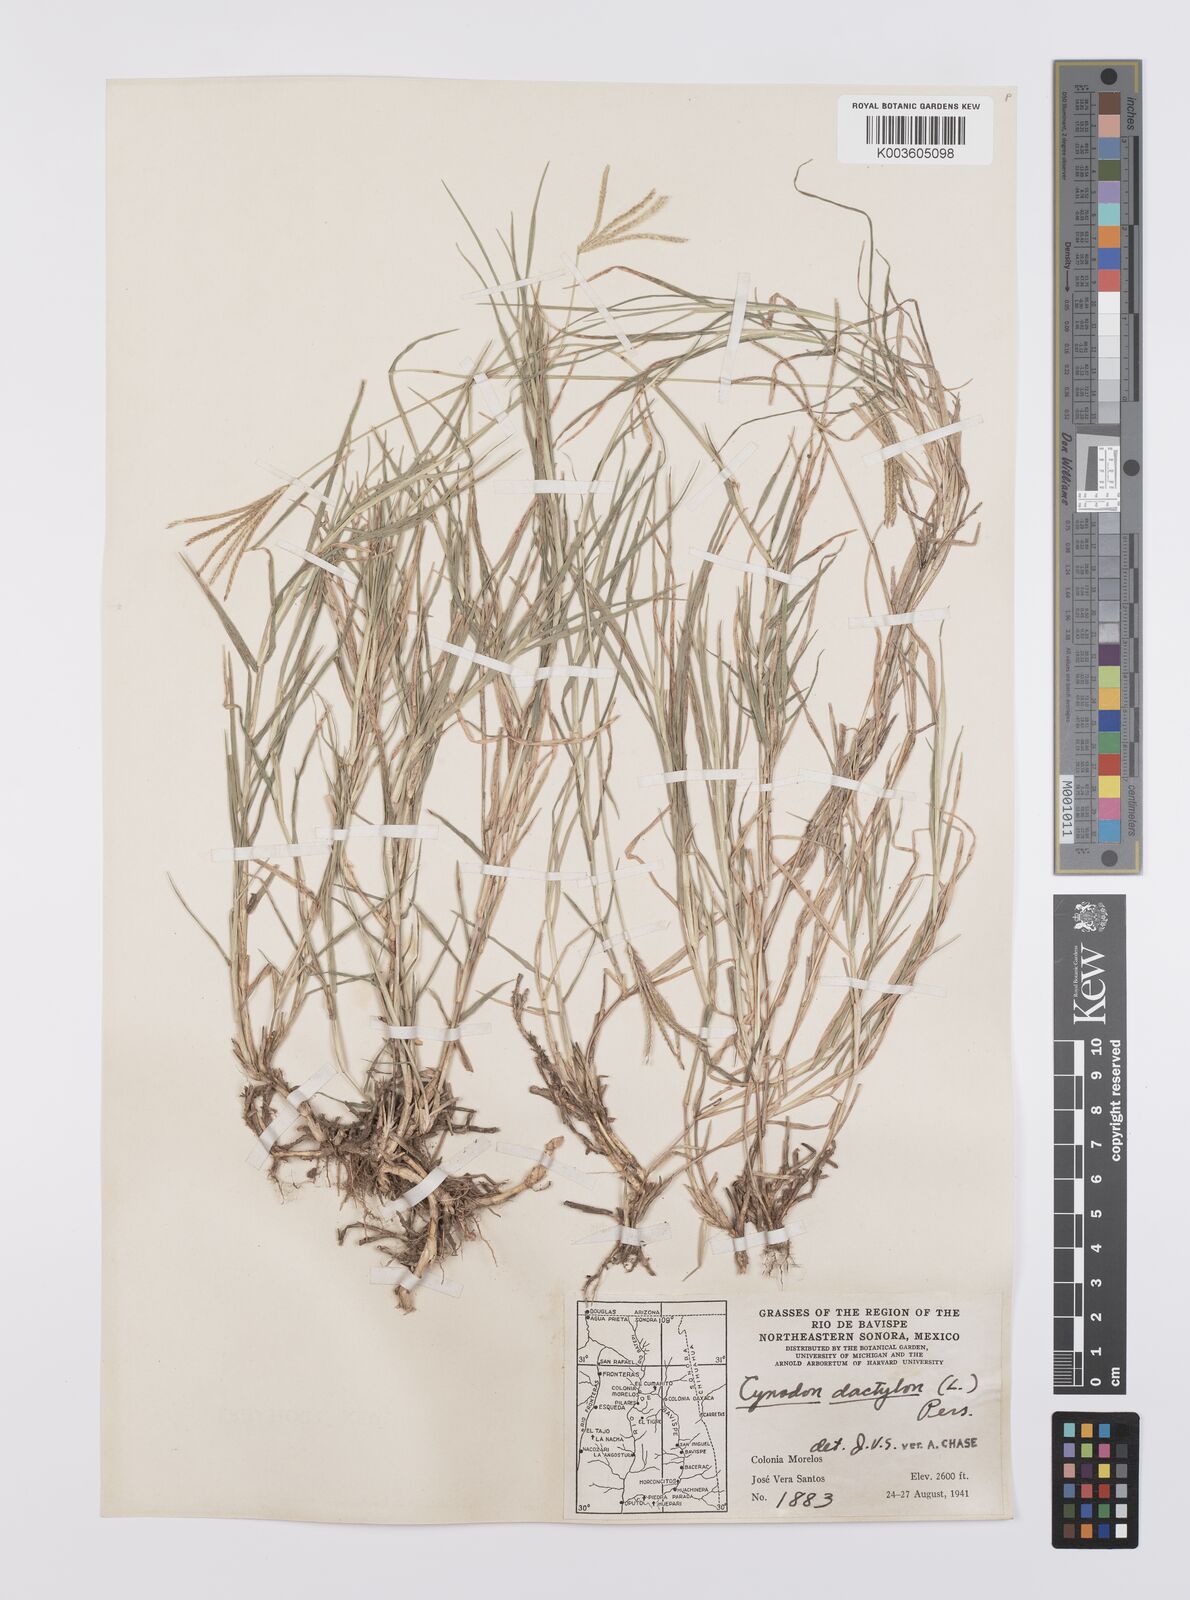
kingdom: Plantae
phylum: Tracheophyta
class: Liliopsida
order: Poales
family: Poaceae
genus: Cynodon
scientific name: Cynodon dactylon
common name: Bermuda grass
